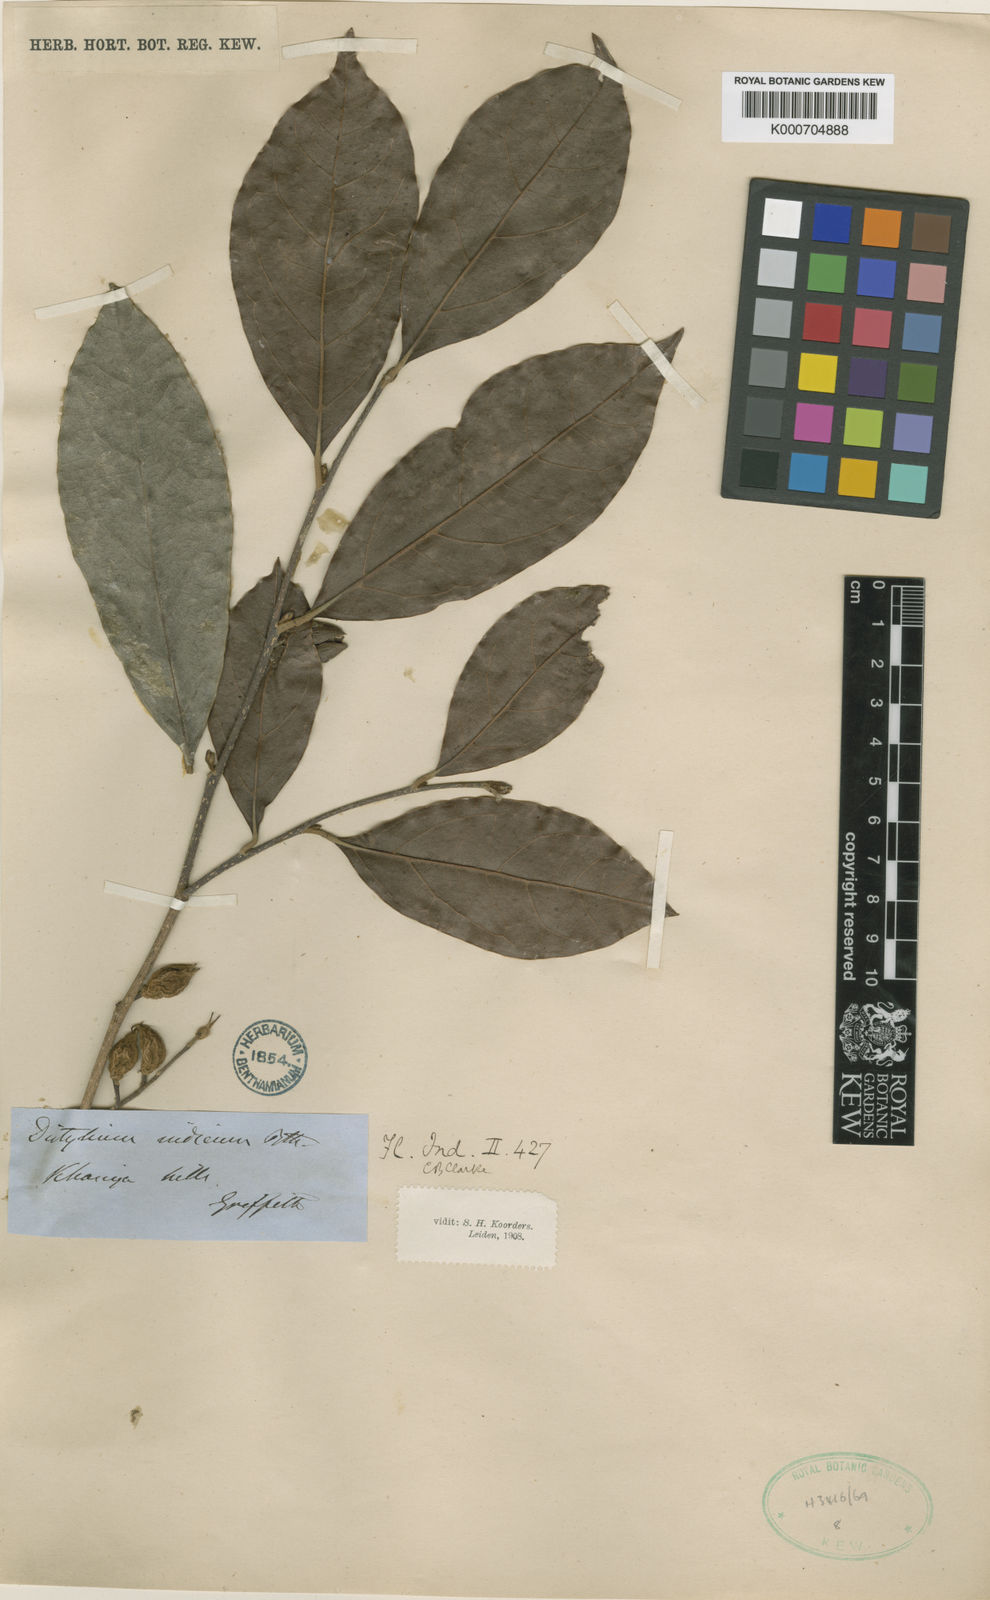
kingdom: Plantae
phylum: Tracheophyta
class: Magnoliopsida
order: Saxifragales
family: Hamamelidaceae
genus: Distylium
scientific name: Distylium indicum
